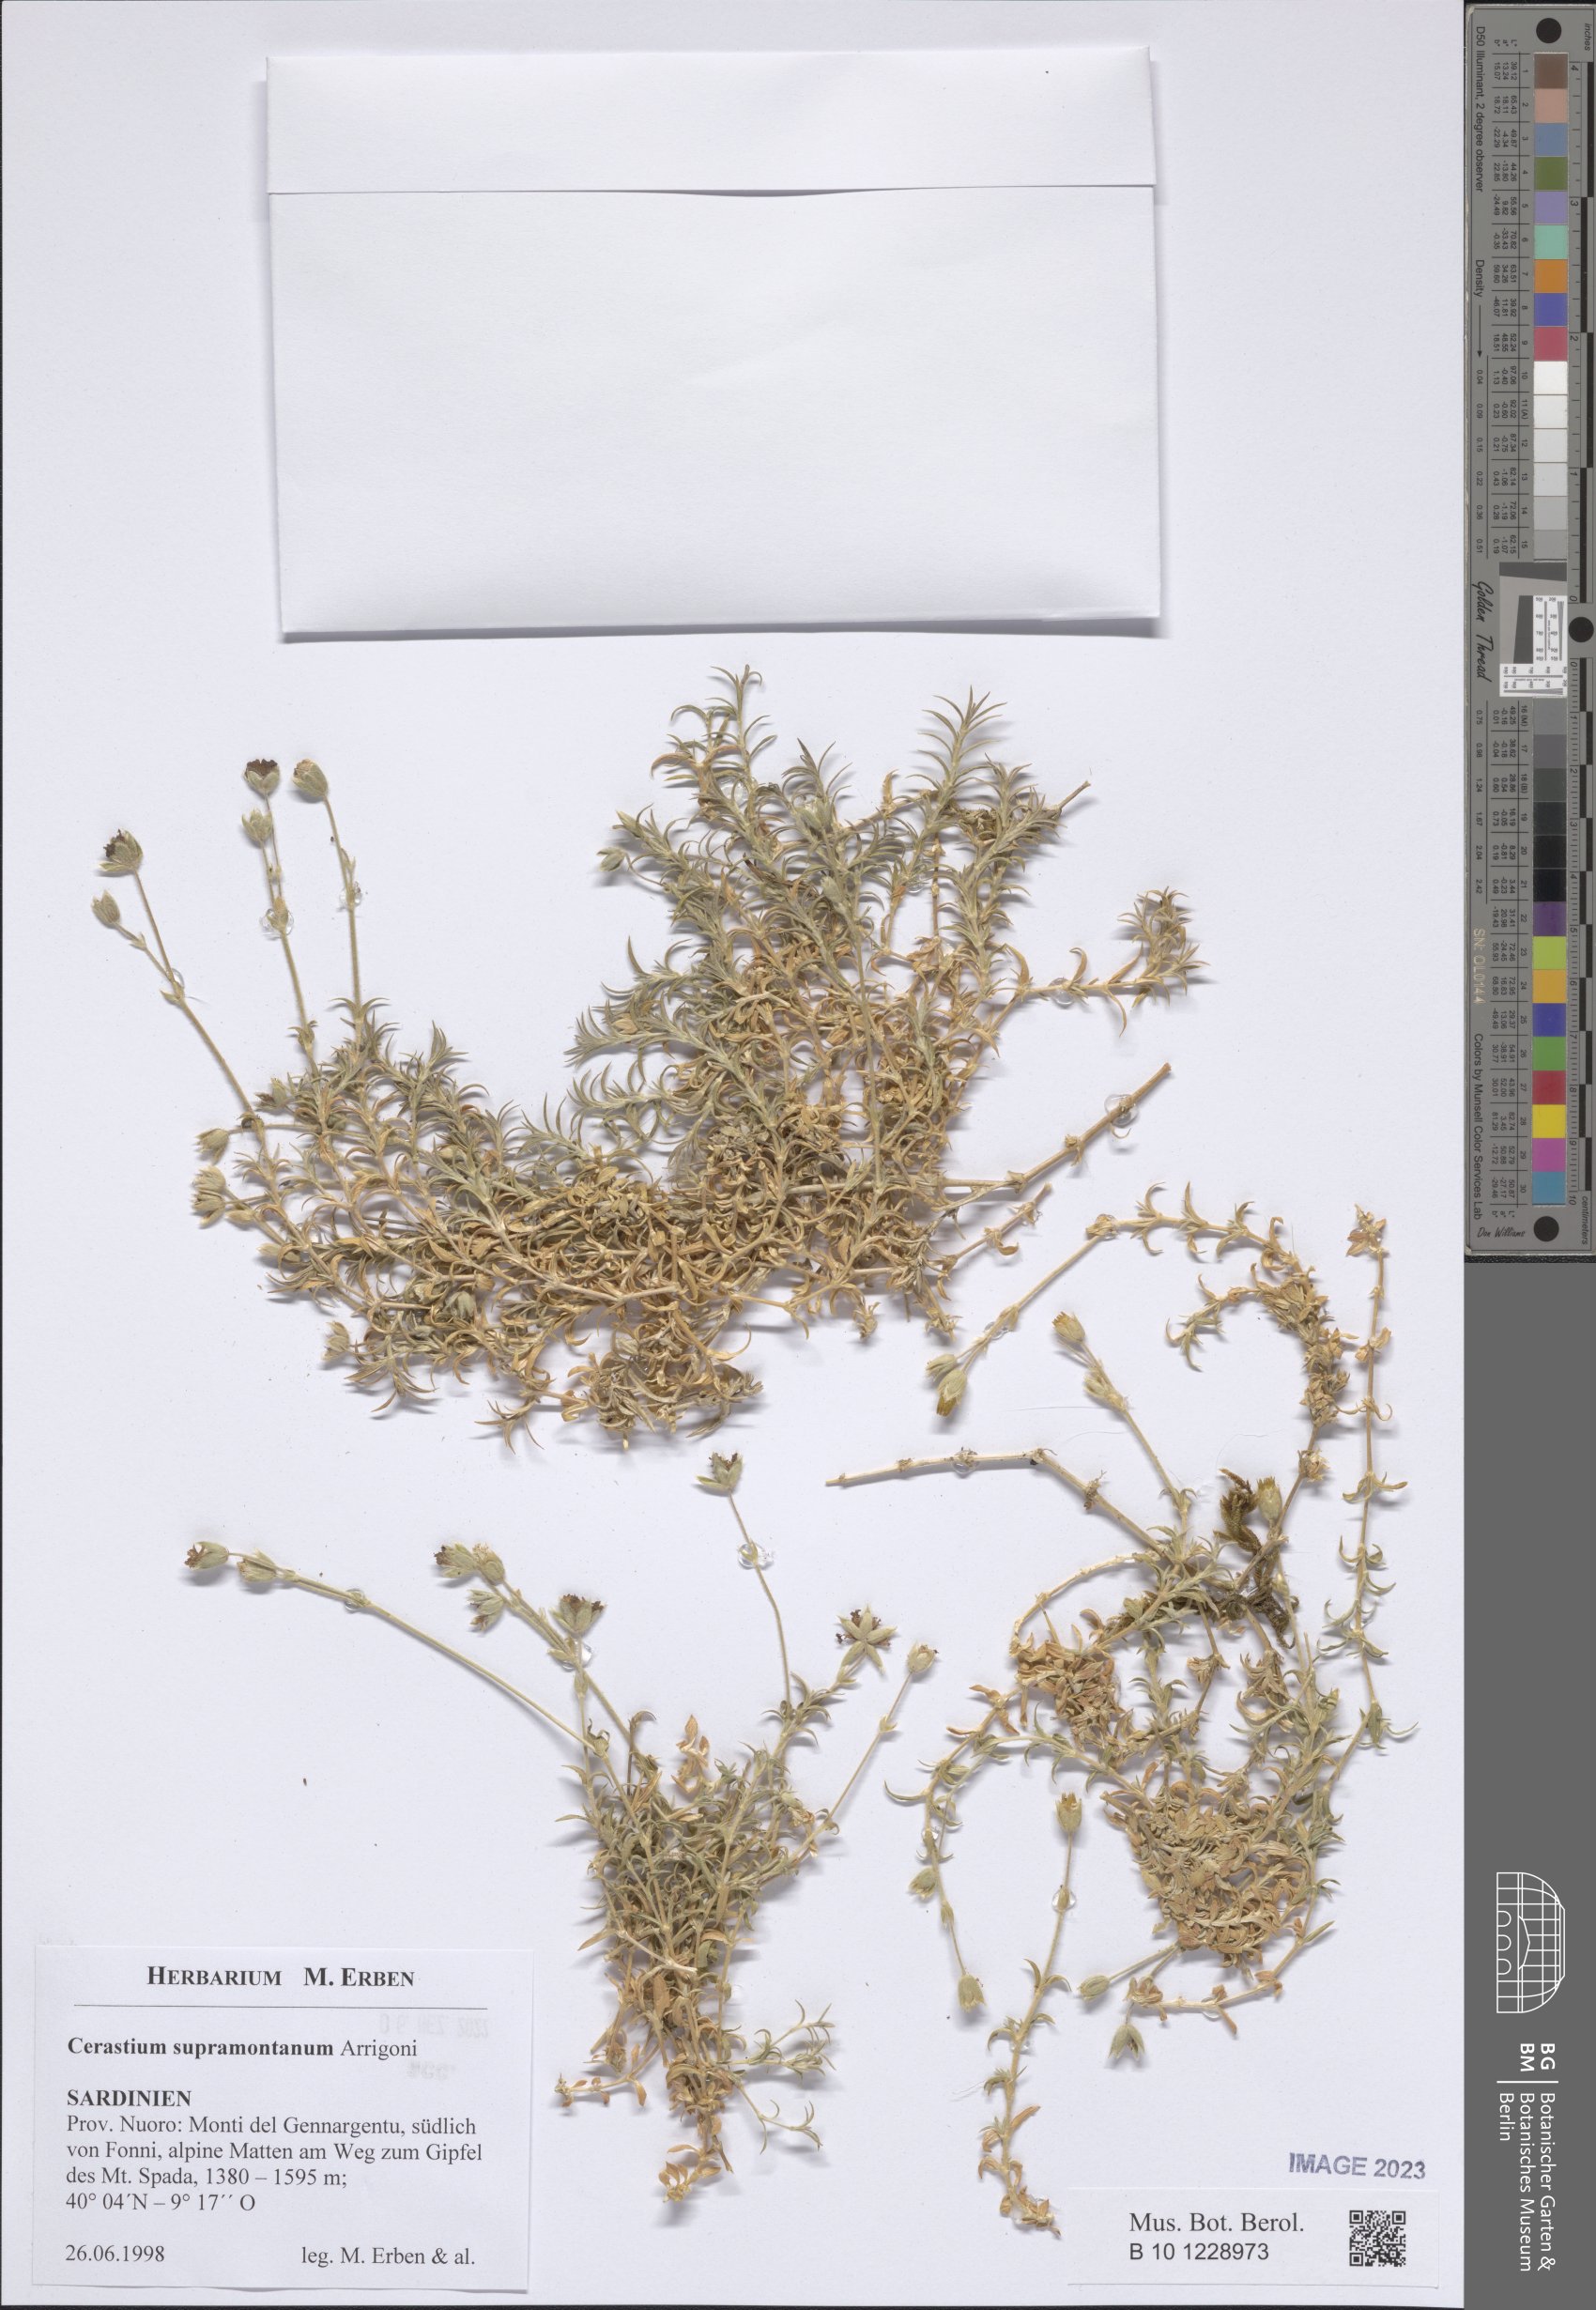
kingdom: Plantae
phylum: Tracheophyta
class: Magnoliopsida
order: Caryophyllales
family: Caryophyllaceae
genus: Cerastium
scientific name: Cerastium supramontanum
